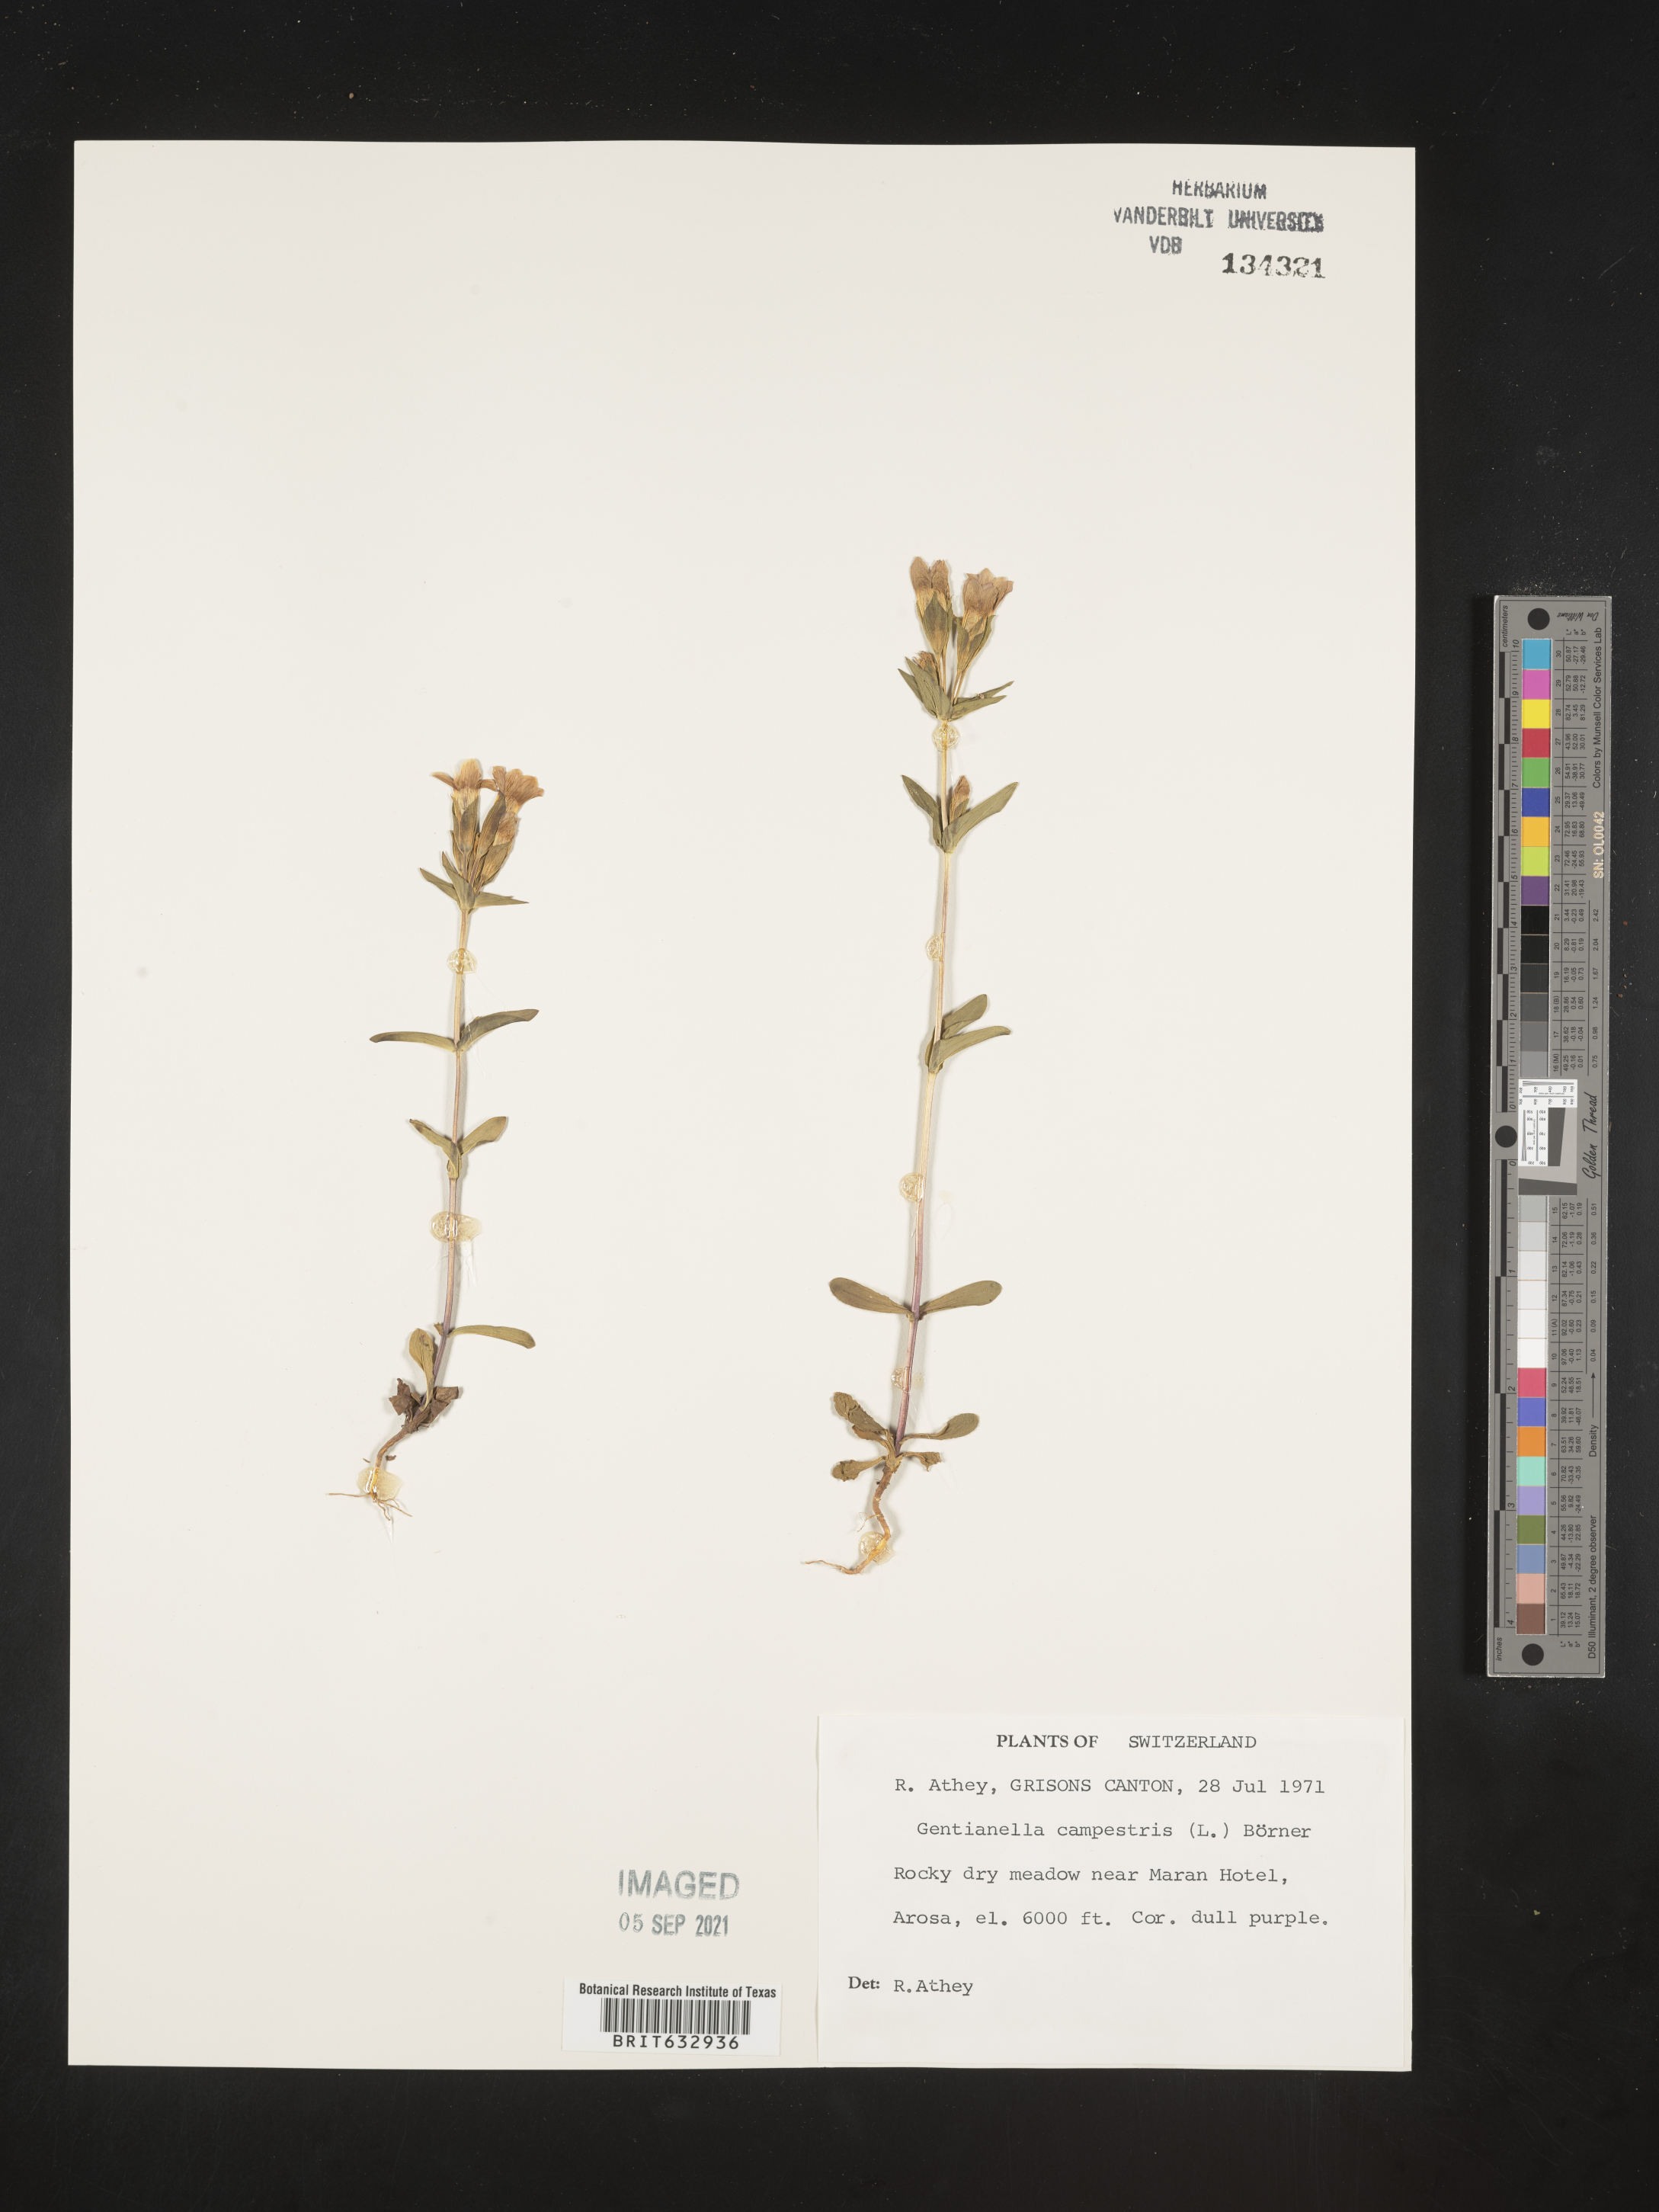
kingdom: Plantae
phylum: Tracheophyta
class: Magnoliopsida
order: Gentianales
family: Gentianaceae
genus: Gentiana
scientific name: Gentiana
